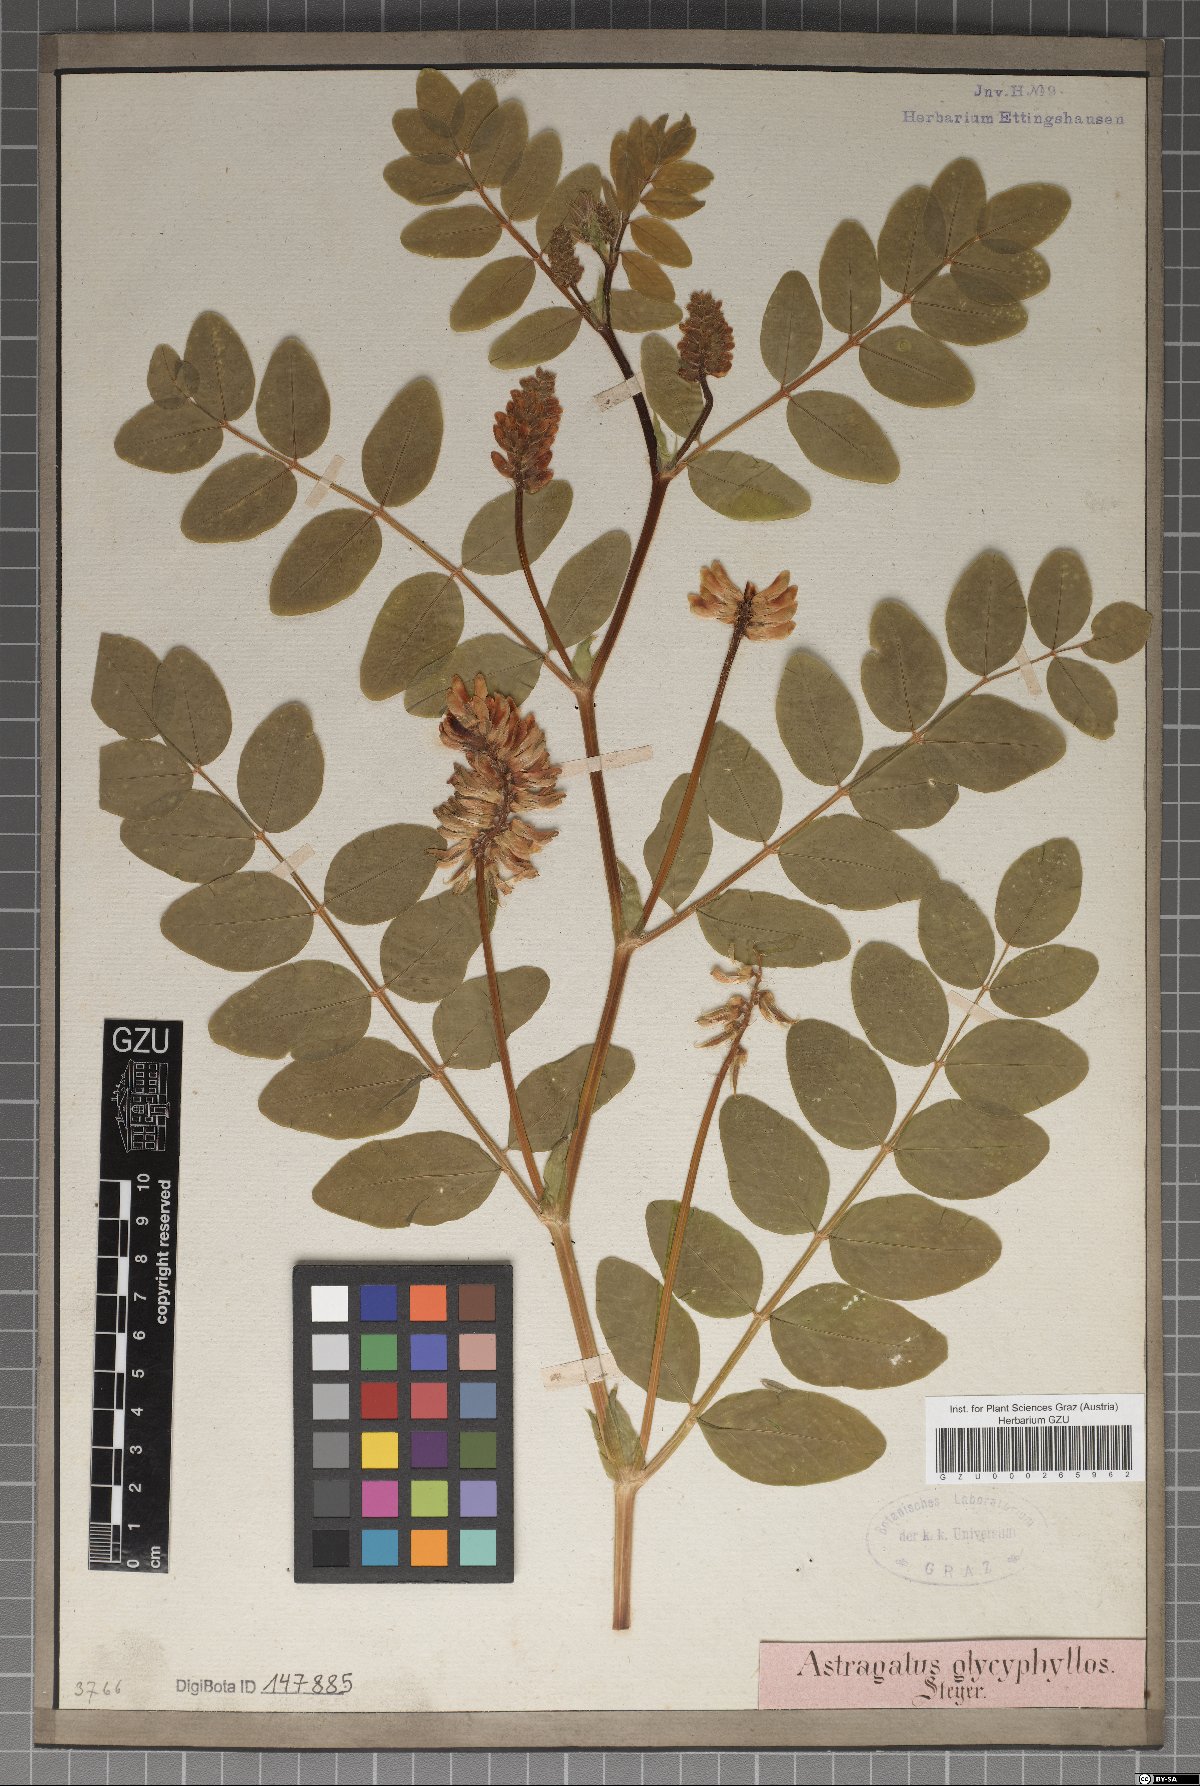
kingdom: Plantae
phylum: Tracheophyta
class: Magnoliopsida
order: Fabales
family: Fabaceae
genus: Astragalus
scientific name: Astragalus glycyphyllos
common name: Wild liquorice
